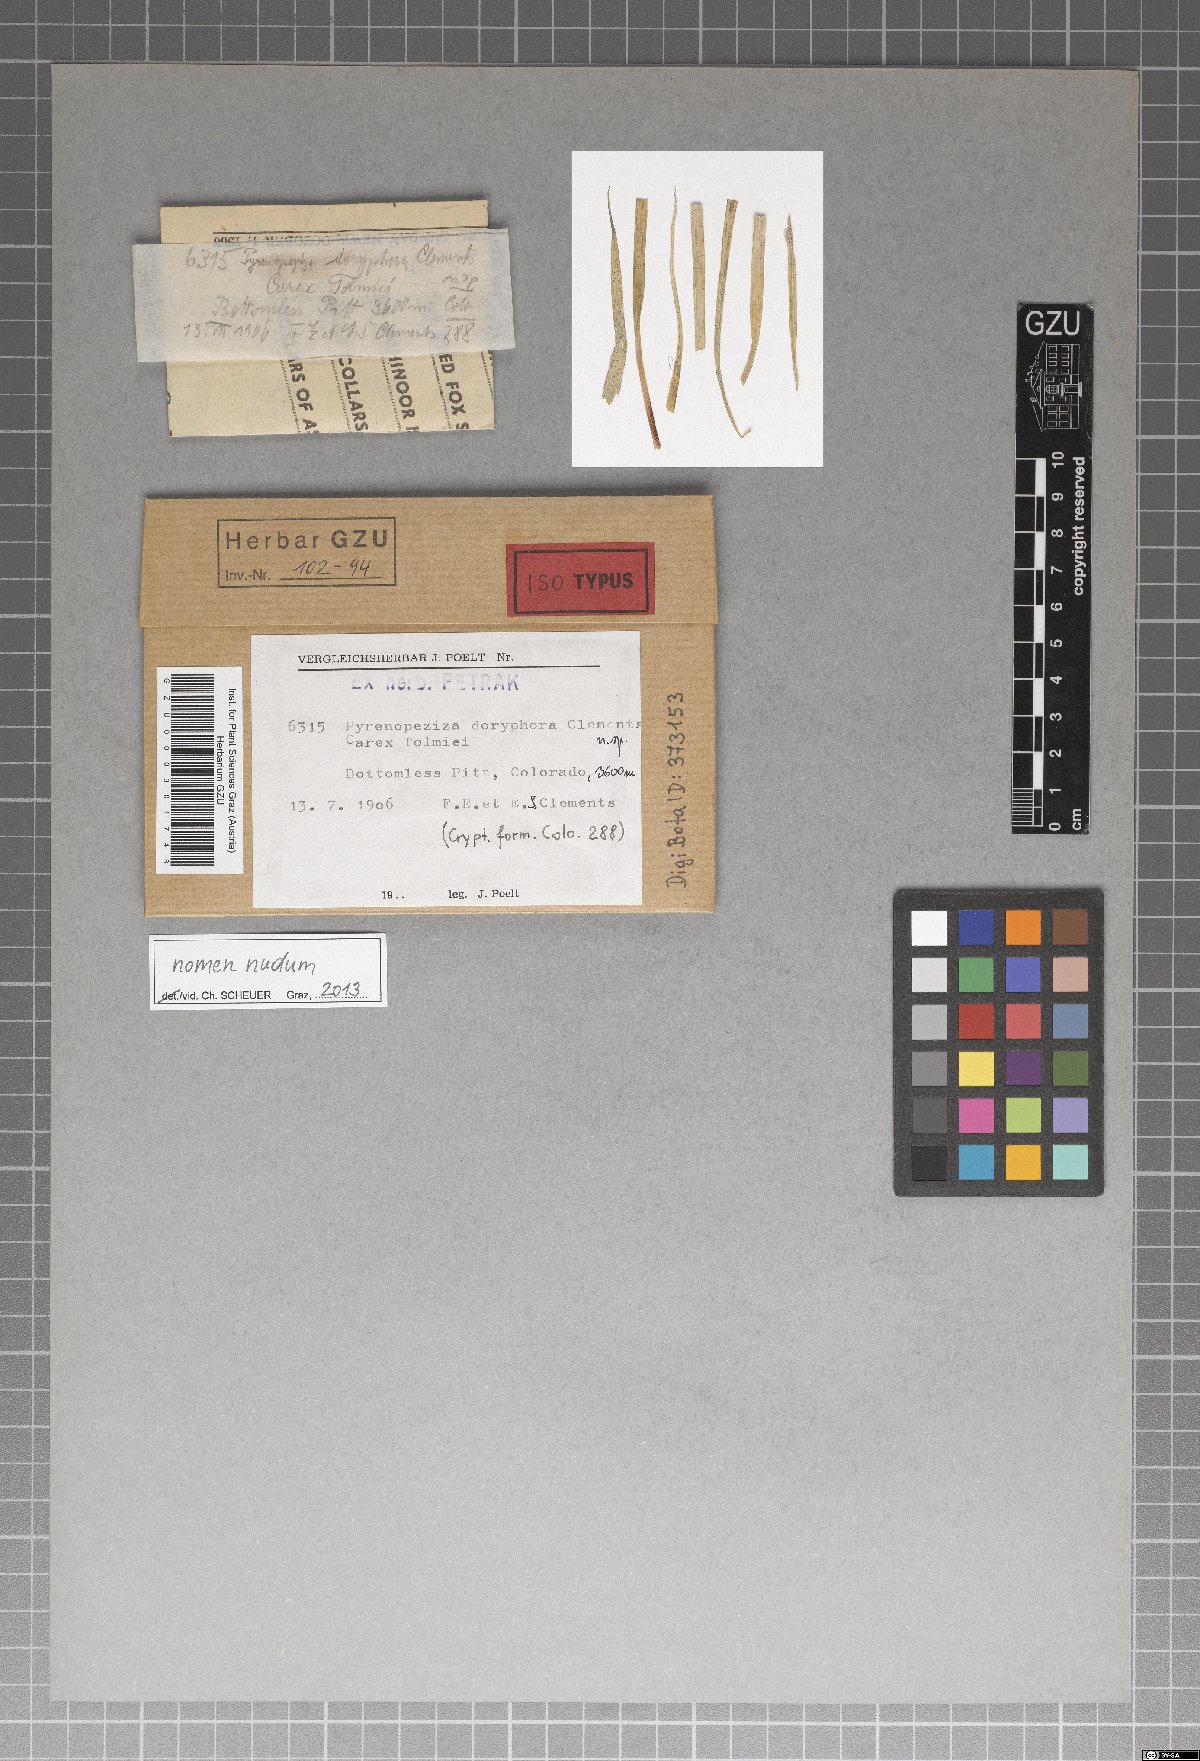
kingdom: Fungi
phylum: Ascomycota
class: Leotiomycetes
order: Helotiales
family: Dermateaceae
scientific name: Dermateaceae
